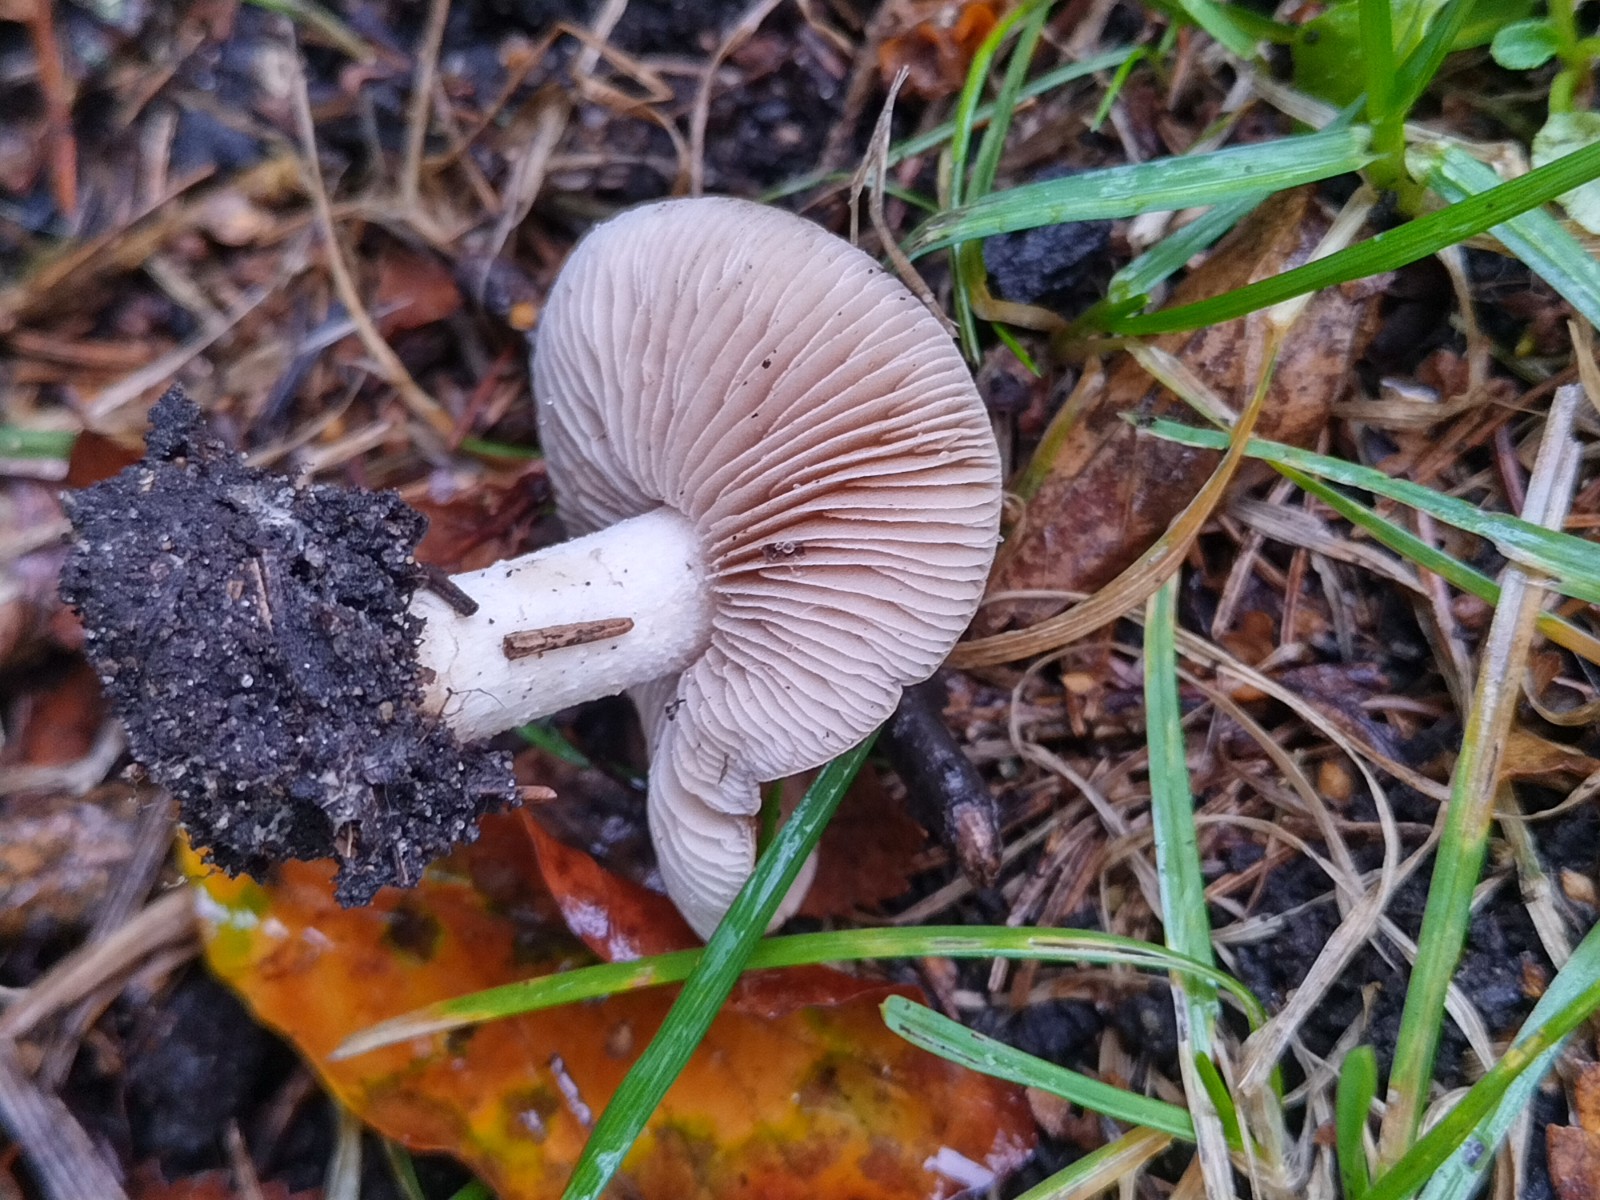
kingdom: Fungi
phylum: Basidiomycota
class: Agaricomycetes
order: Agaricales
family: Hymenogastraceae
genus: Hebeloma
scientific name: Hebeloma
